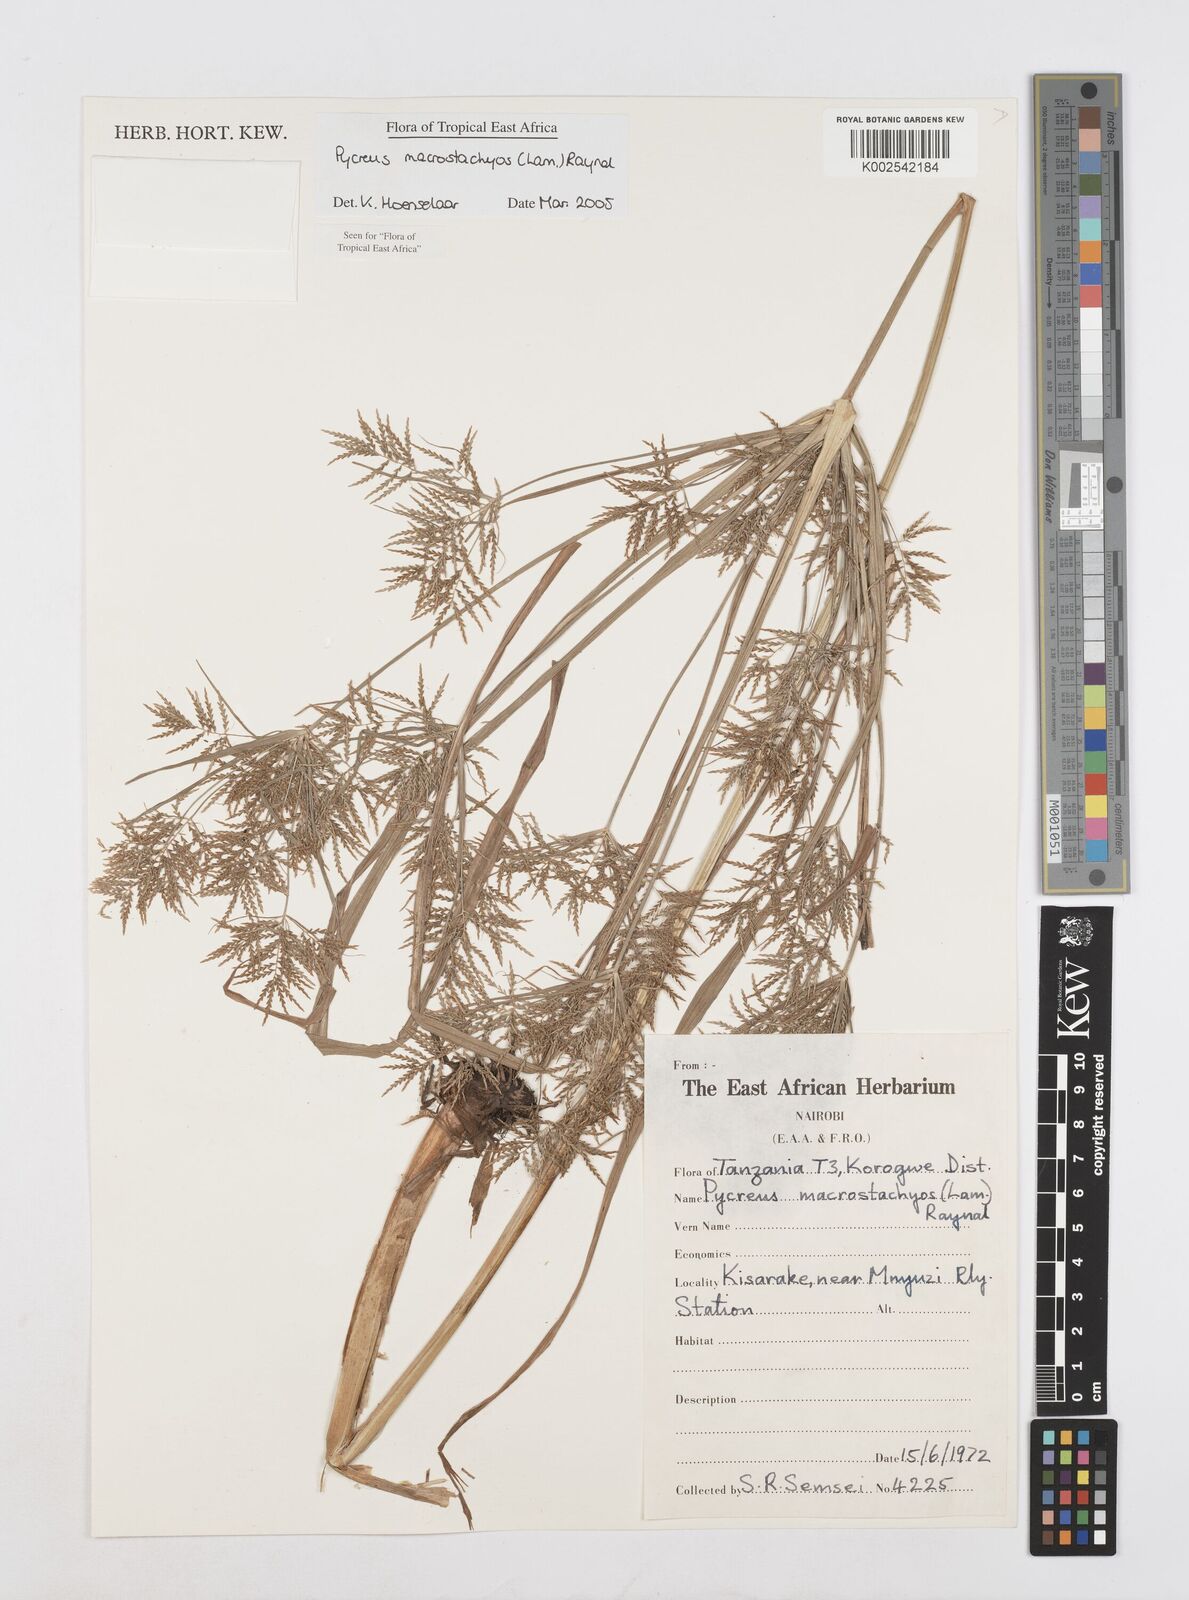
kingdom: Plantae
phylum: Tracheophyta
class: Liliopsida
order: Poales
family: Cyperaceae
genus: Cyperus
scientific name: Cyperus macrostachyos
